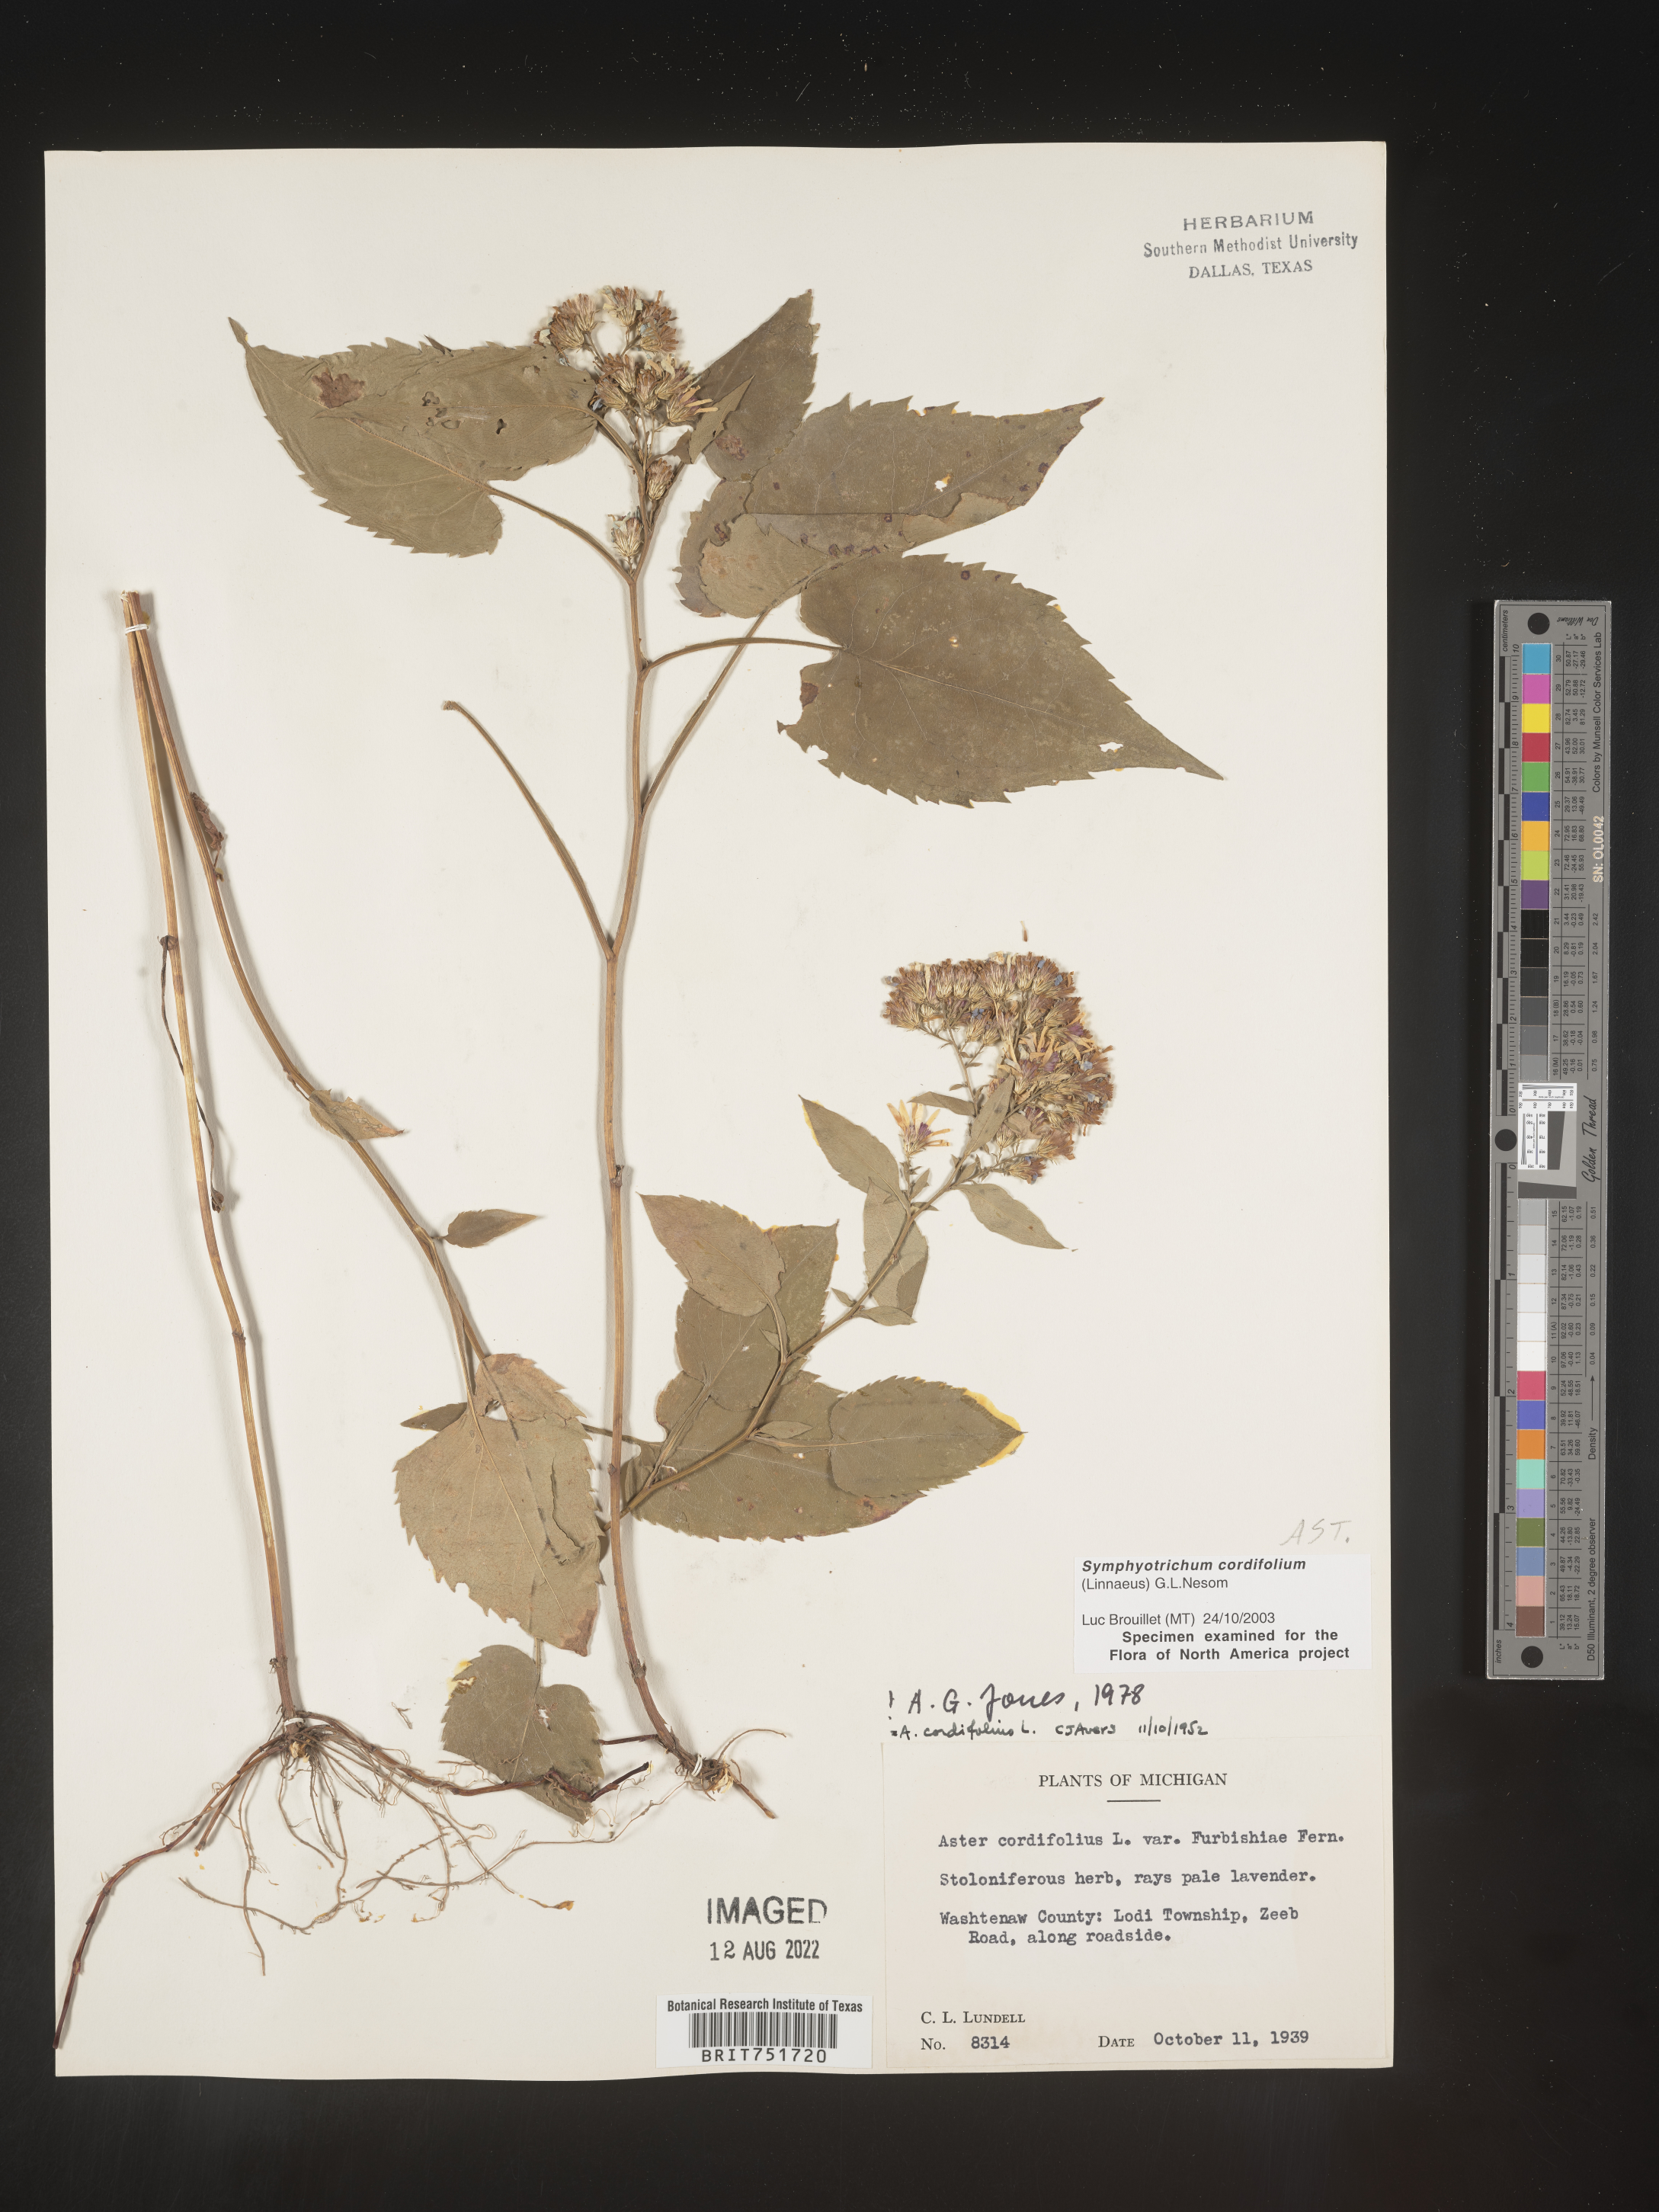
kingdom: Plantae
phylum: Tracheophyta
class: Magnoliopsida
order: Asterales
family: Asteraceae
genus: Symphyotrichum
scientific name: Symphyotrichum cordifolium
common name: Beeweed
